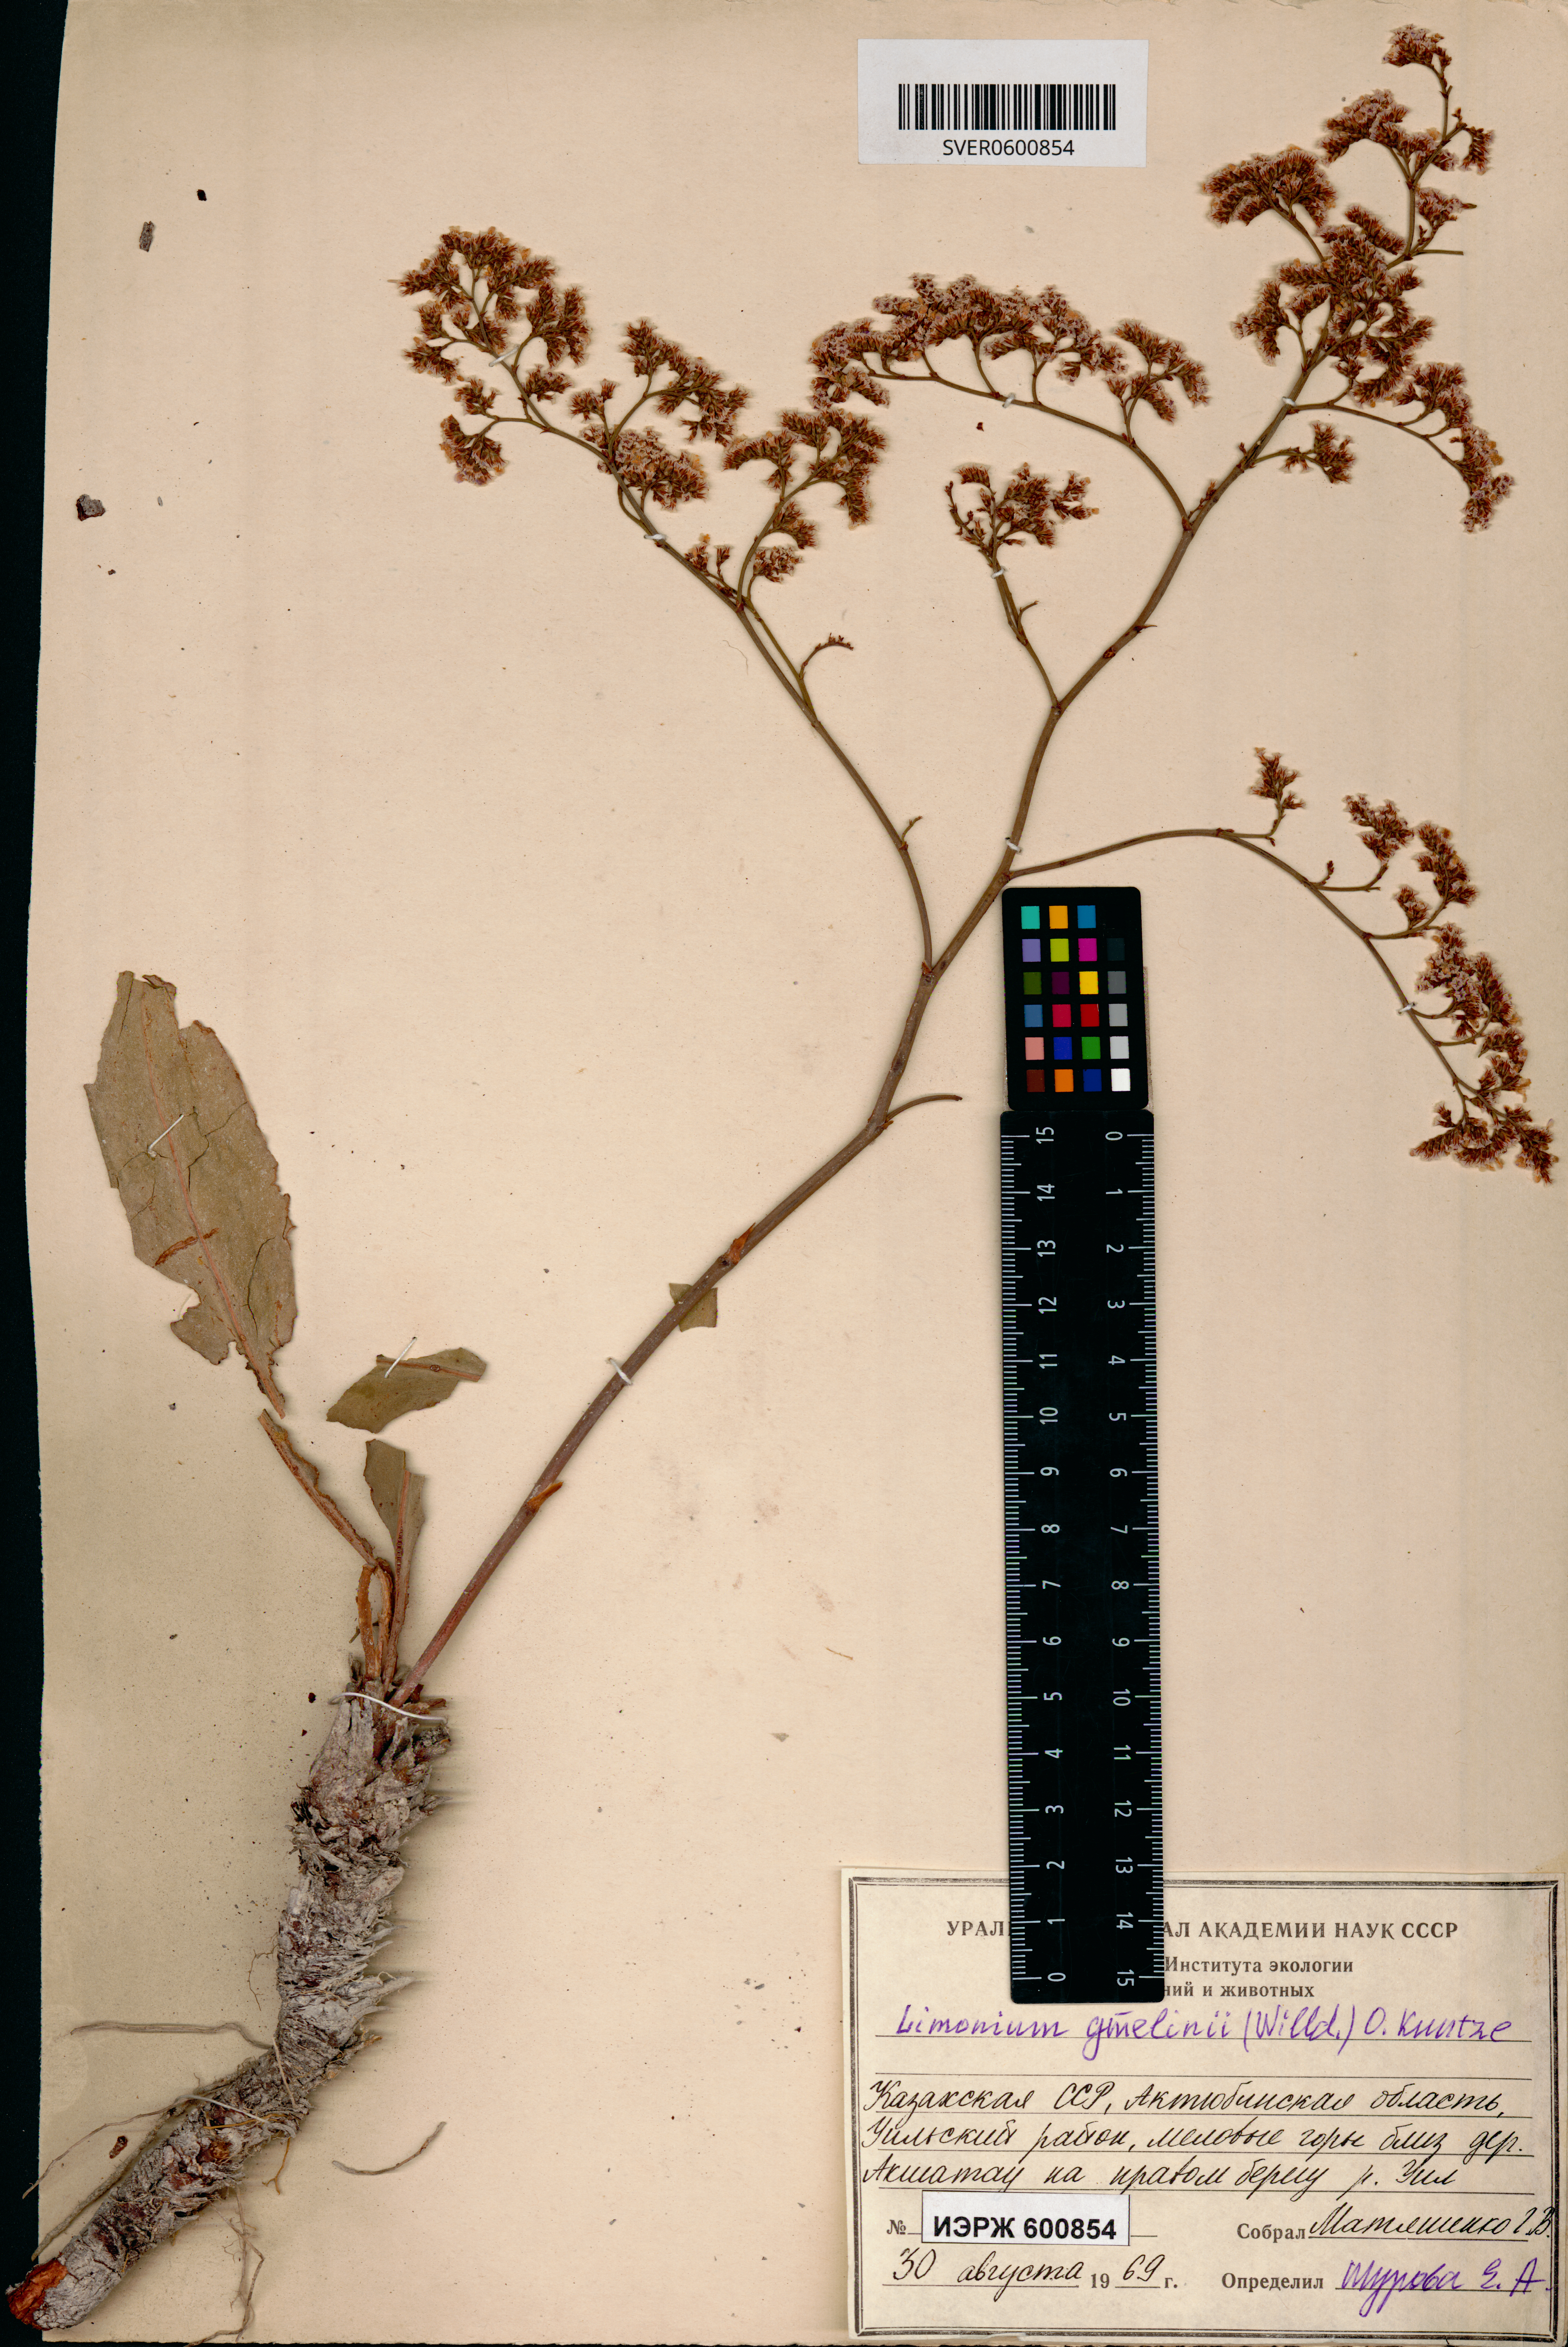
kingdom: Plantae
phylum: Tracheophyta
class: Magnoliopsida
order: Caryophyllales
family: Plumbaginaceae
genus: Limonium
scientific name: Limonium gmelini
